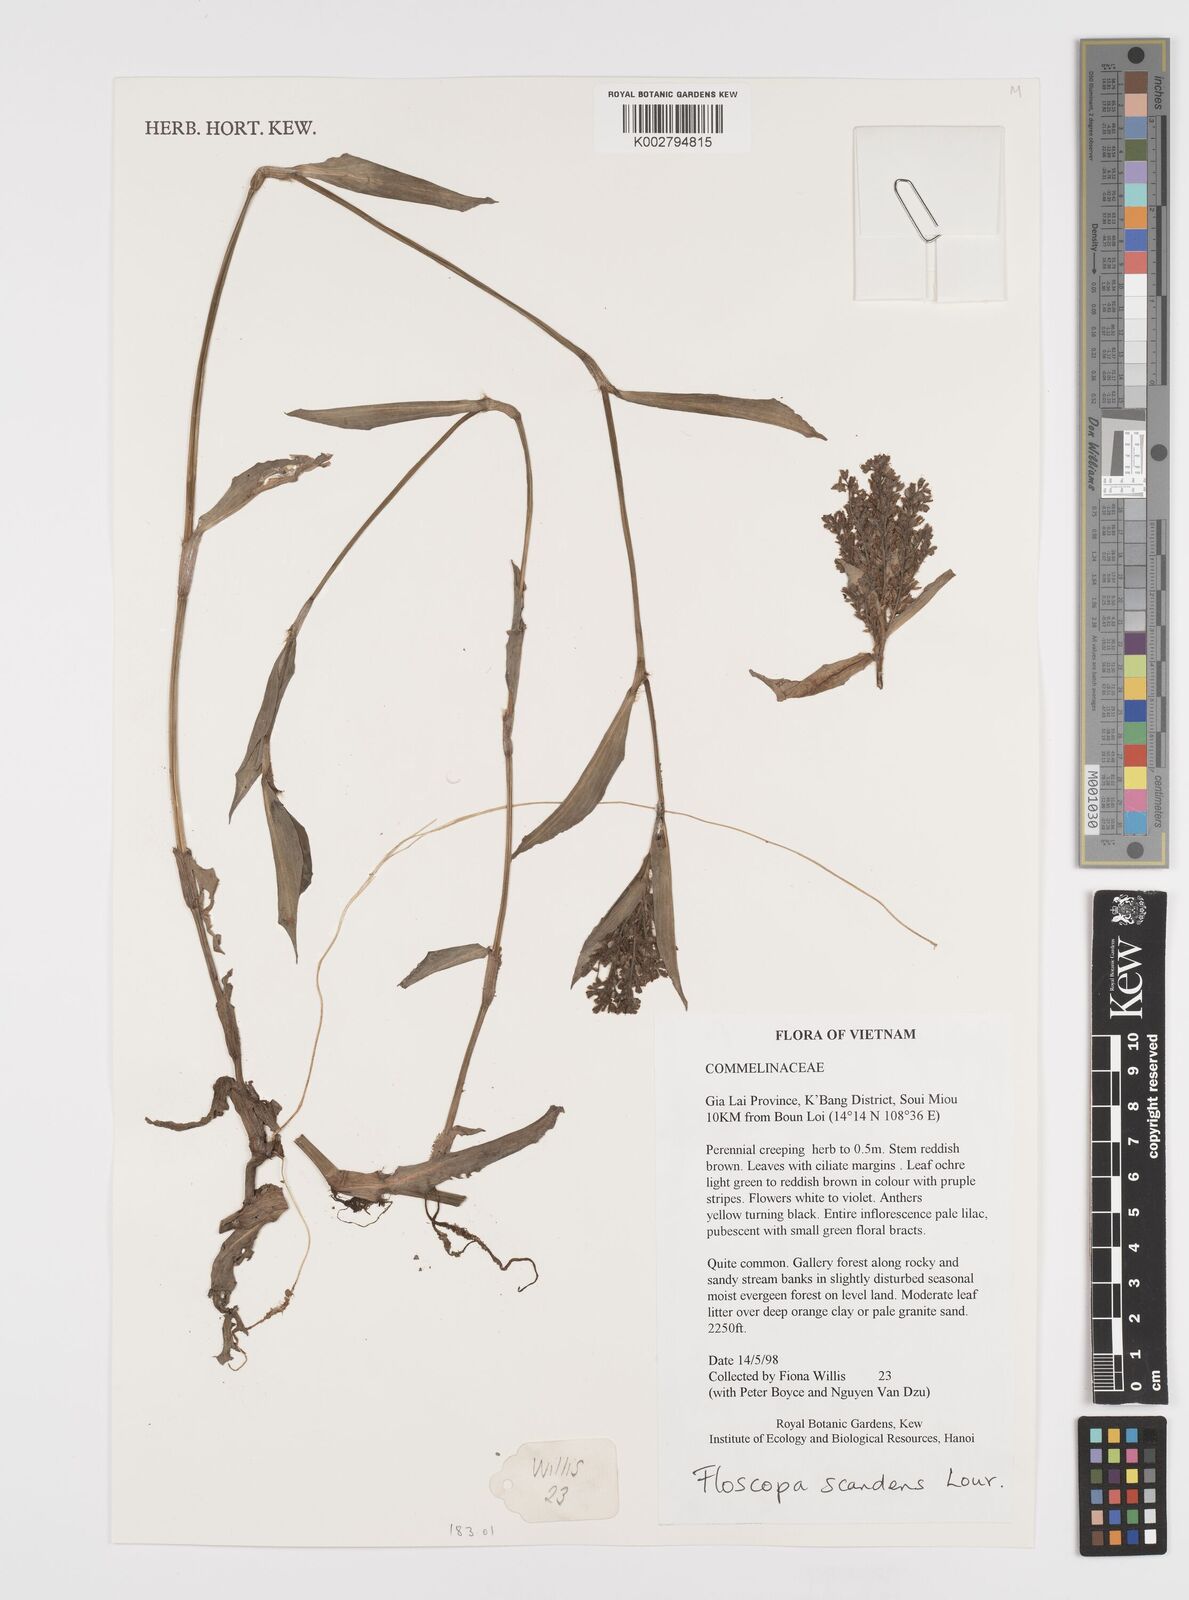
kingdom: Plantae
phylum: Tracheophyta
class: Liliopsida
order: Commelinales
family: Commelinaceae
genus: Floscopa
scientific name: Floscopa scandens
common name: Climbing flower cup
